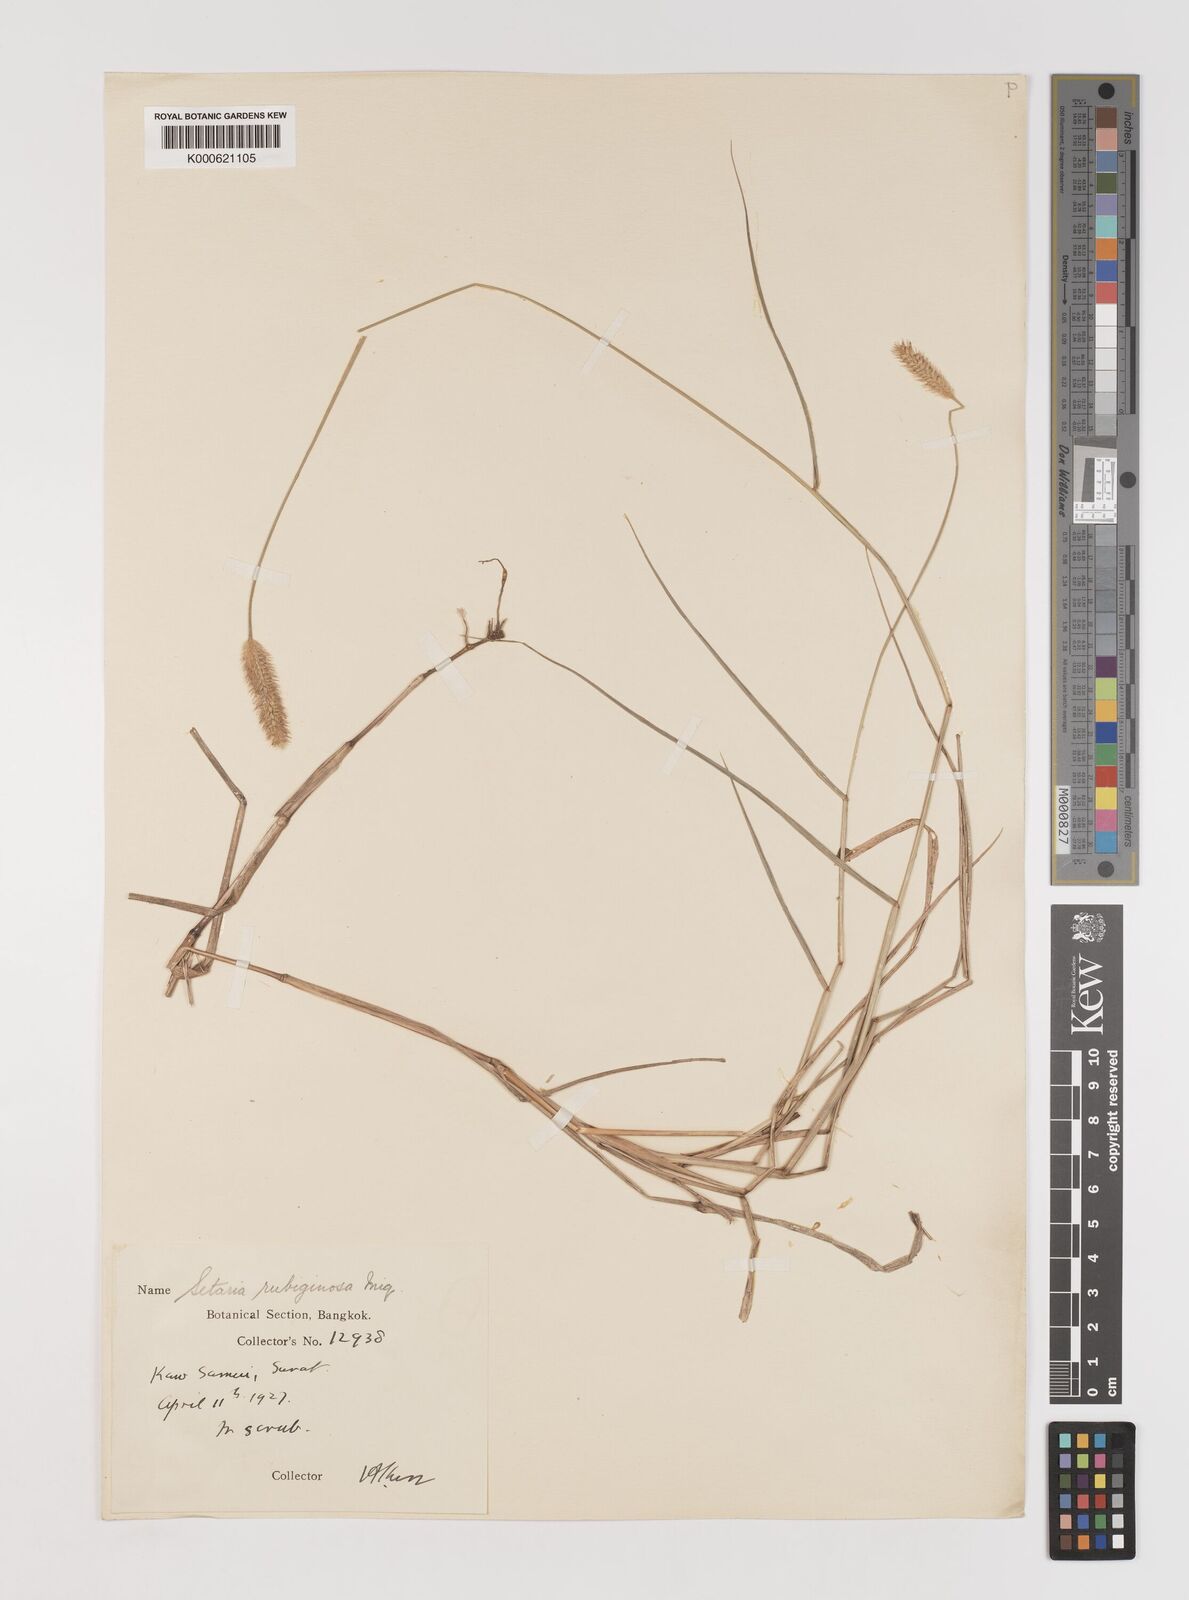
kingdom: Plantae
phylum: Tracheophyta
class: Liliopsida
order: Poales
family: Poaceae
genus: Setaria
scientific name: Setaria pumila
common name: Yellow bristle-grass
